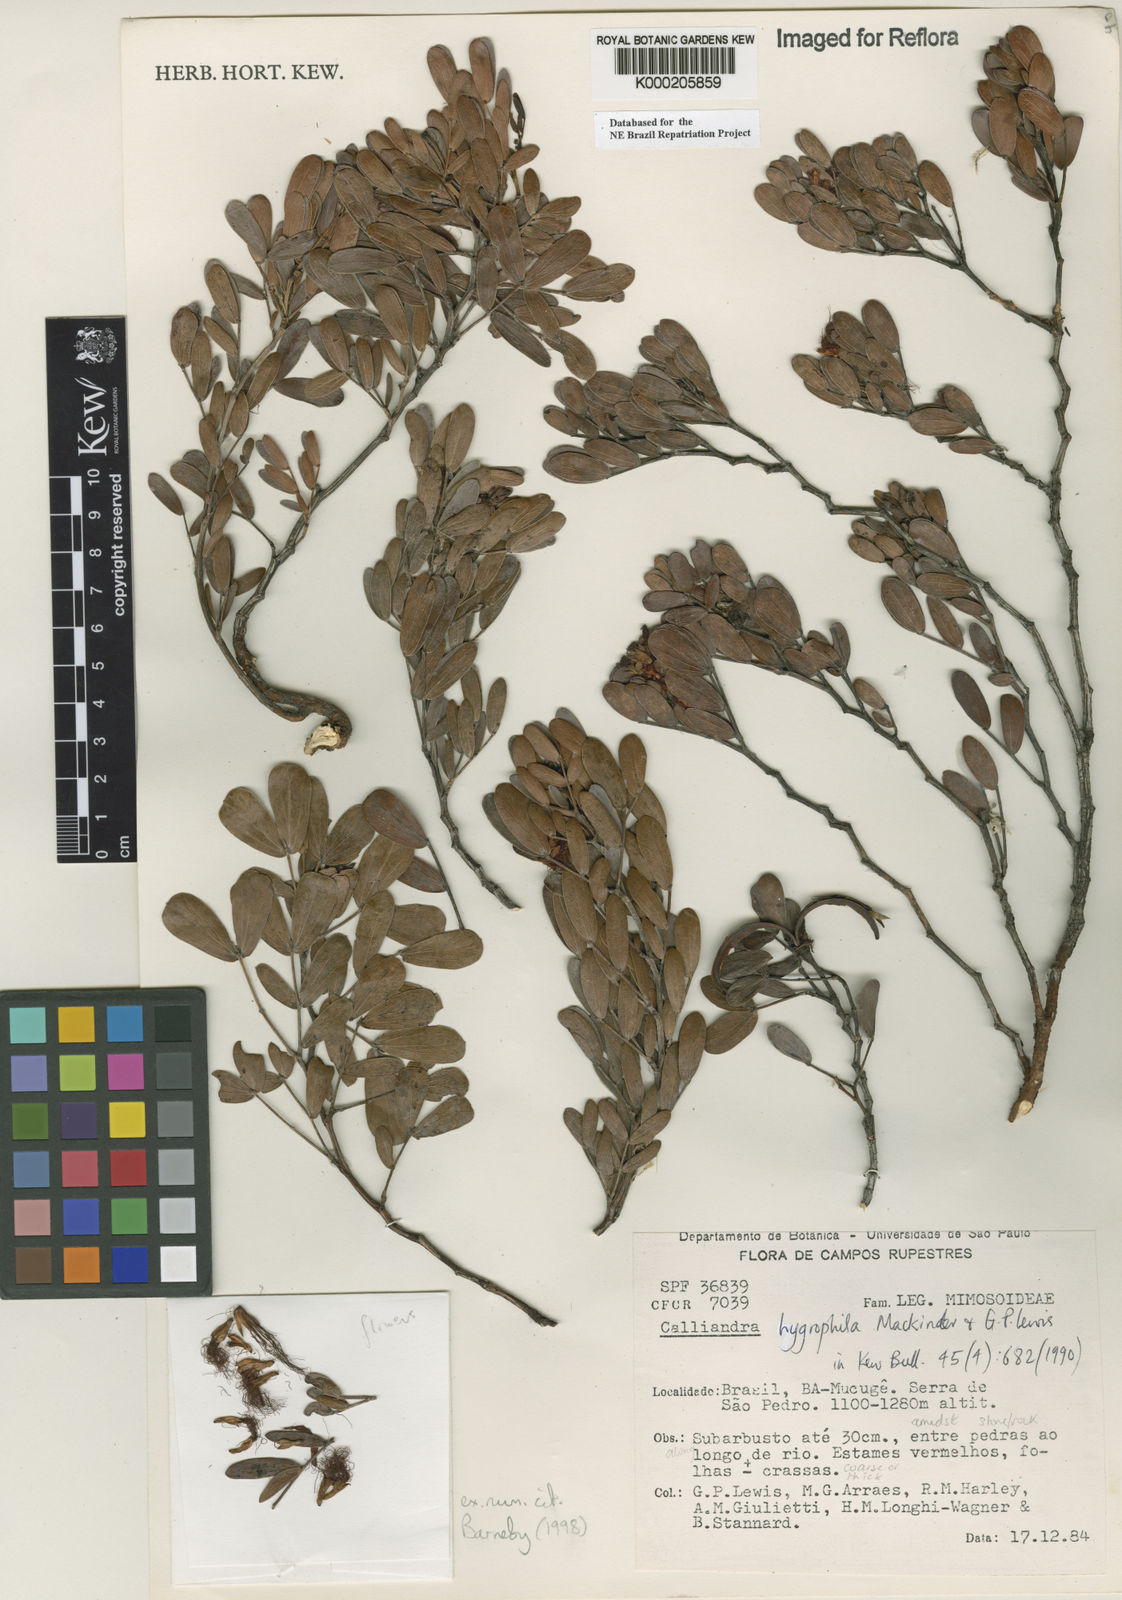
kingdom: Plantae
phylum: Tracheophyta
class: Magnoliopsida
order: Fabales
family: Fabaceae
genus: Calliandra
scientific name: Calliandra hygrophila
